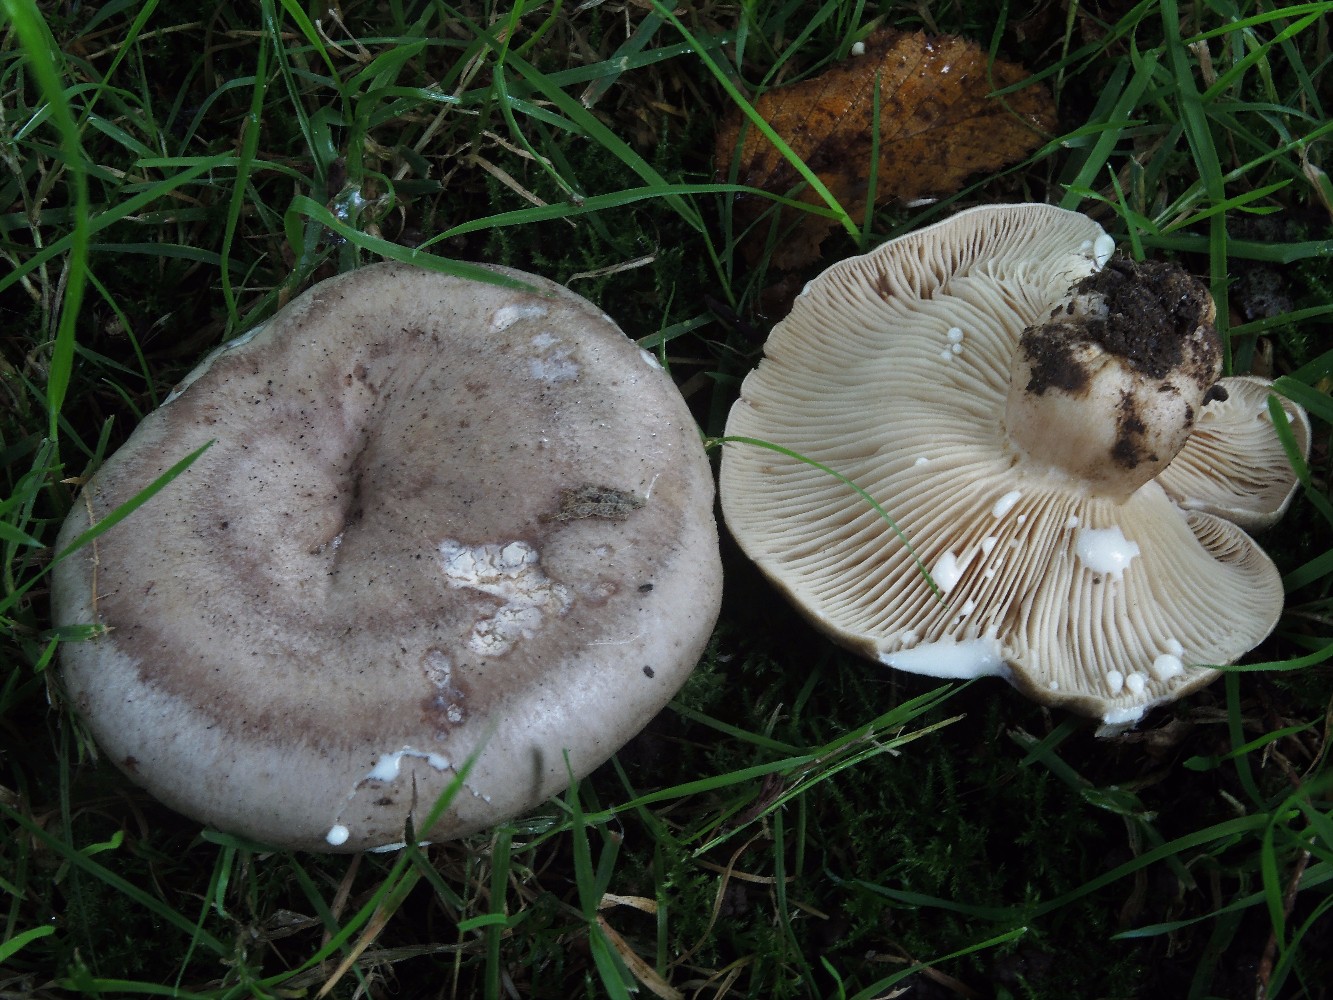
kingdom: Fungi
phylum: Basidiomycota
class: Agaricomycetes
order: Russulales
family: Russulaceae
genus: Lactarius
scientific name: Lactarius circellatus
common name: avnbøg-mælkehat
